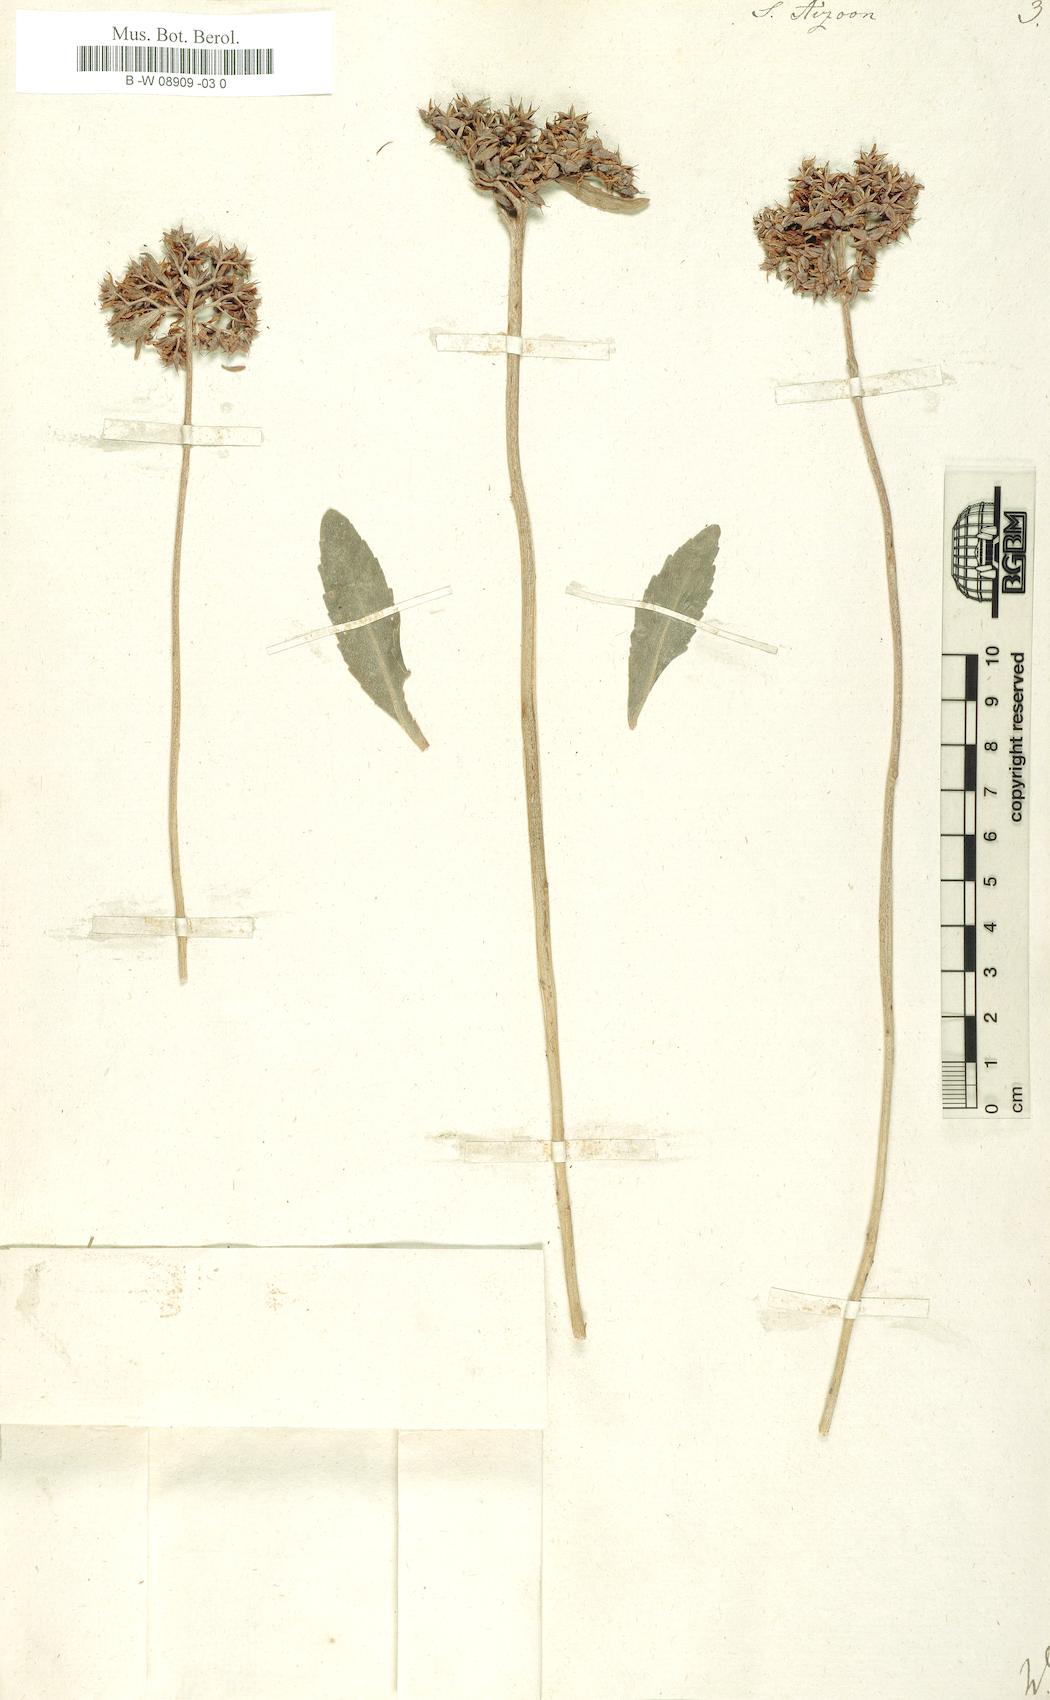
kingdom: Plantae
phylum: Tracheophyta
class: Magnoliopsida
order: Saxifragales
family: Crassulaceae
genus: Sedum
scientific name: Sedum aizoon
